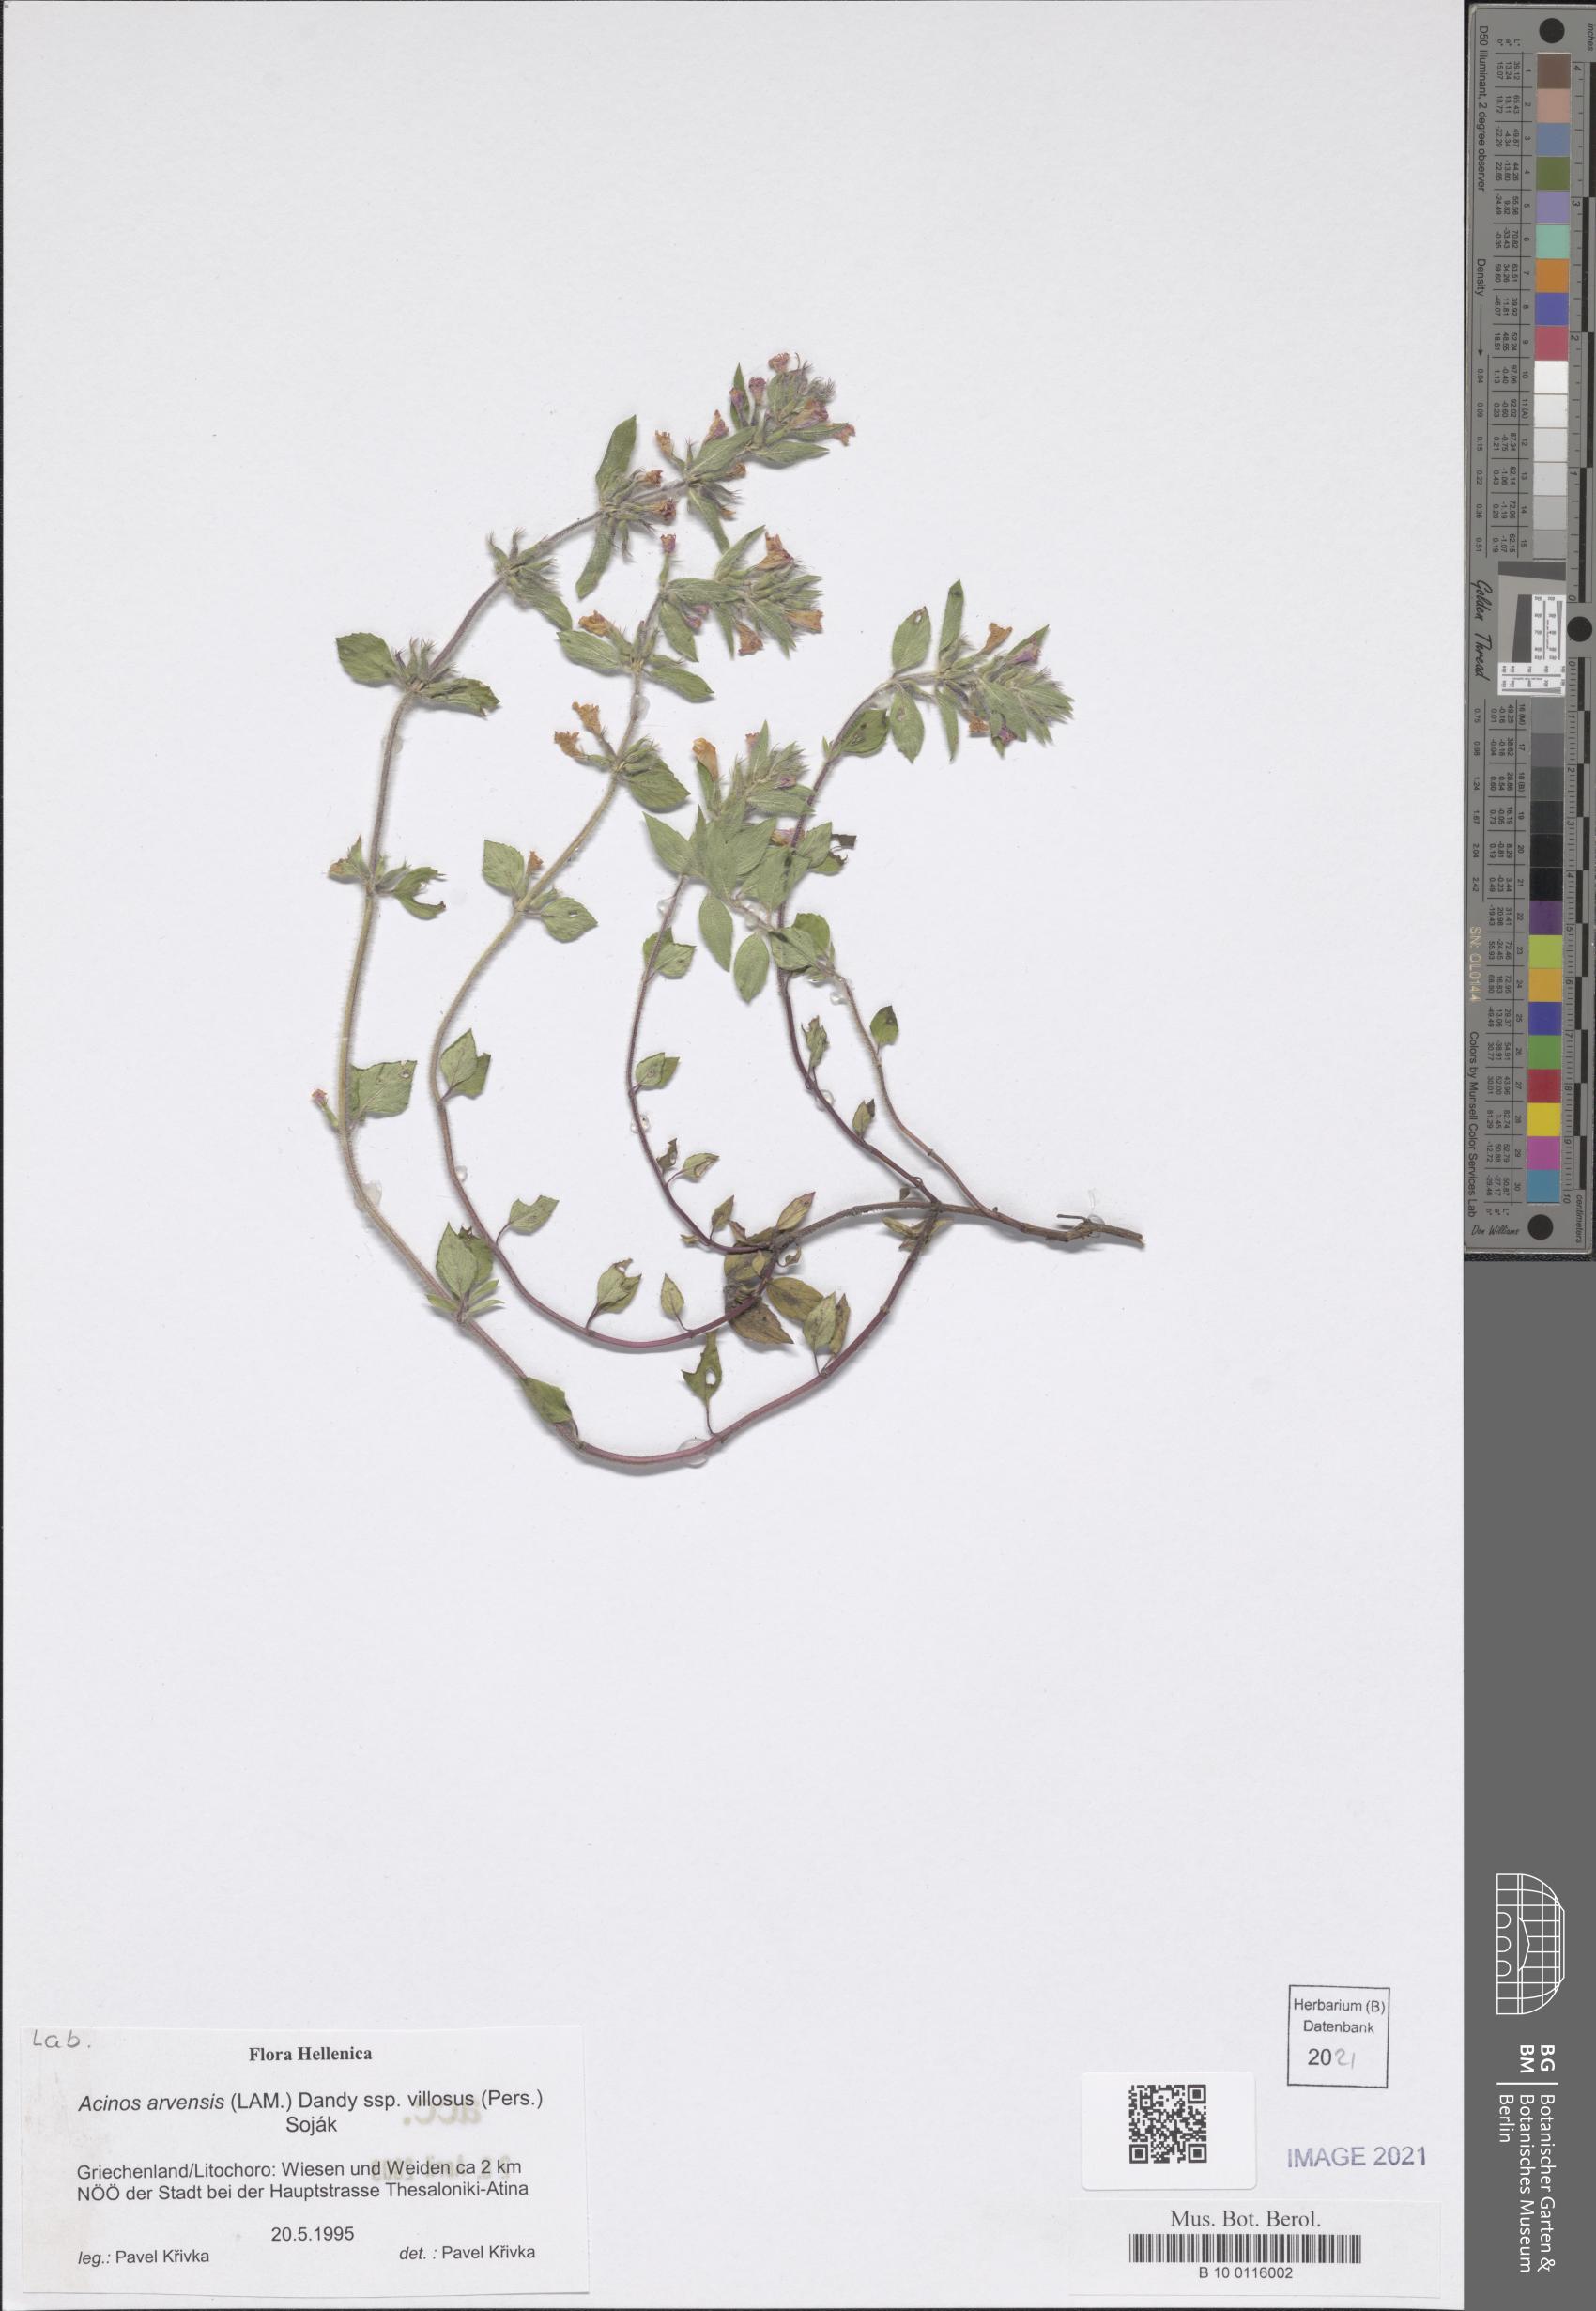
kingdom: Plantae
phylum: Tracheophyta
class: Magnoliopsida
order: Lamiales
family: Lamiaceae
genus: Clinopodium
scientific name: Clinopodium acinos
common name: Basil thyme
